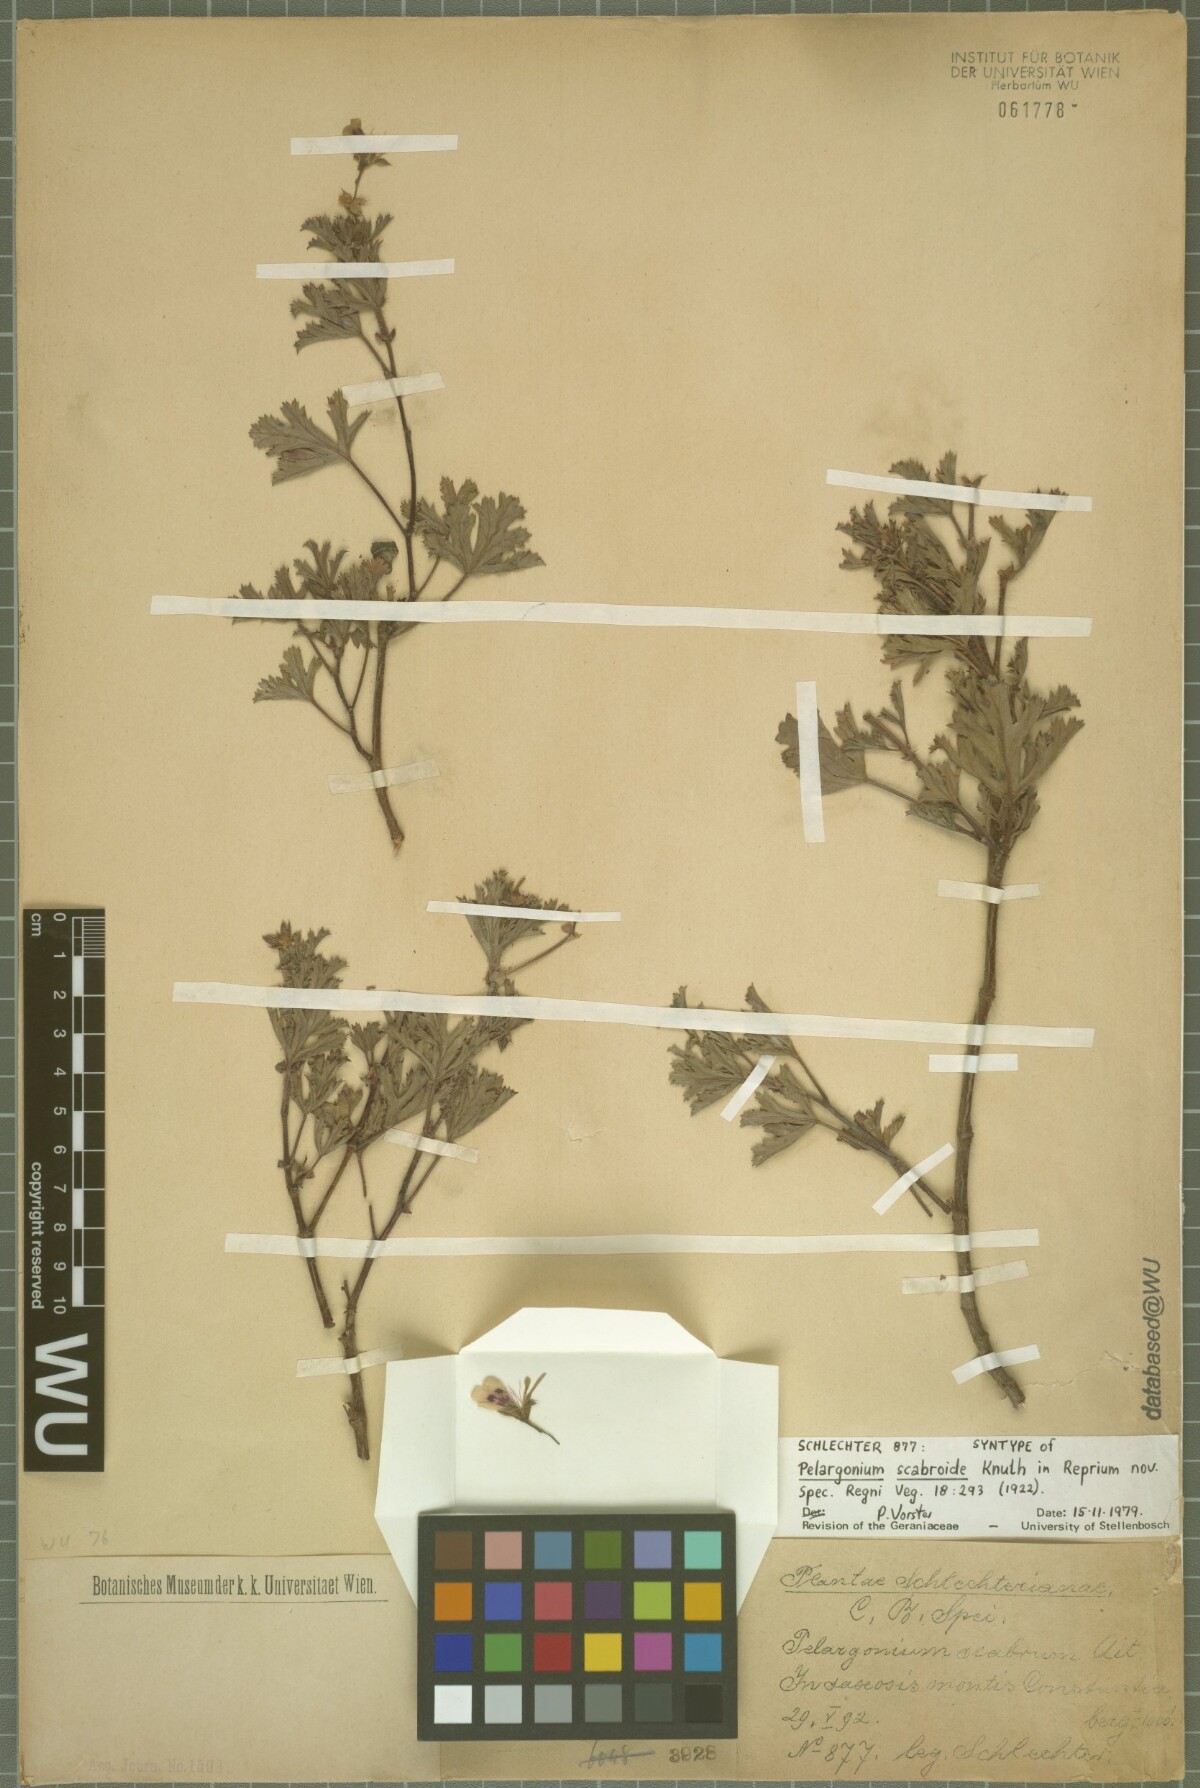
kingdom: Plantae
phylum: Tracheophyta
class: Magnoliopsida
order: Geraniales
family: Geraniaceae
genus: Pelargonium
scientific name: Pelargonium scabroide
